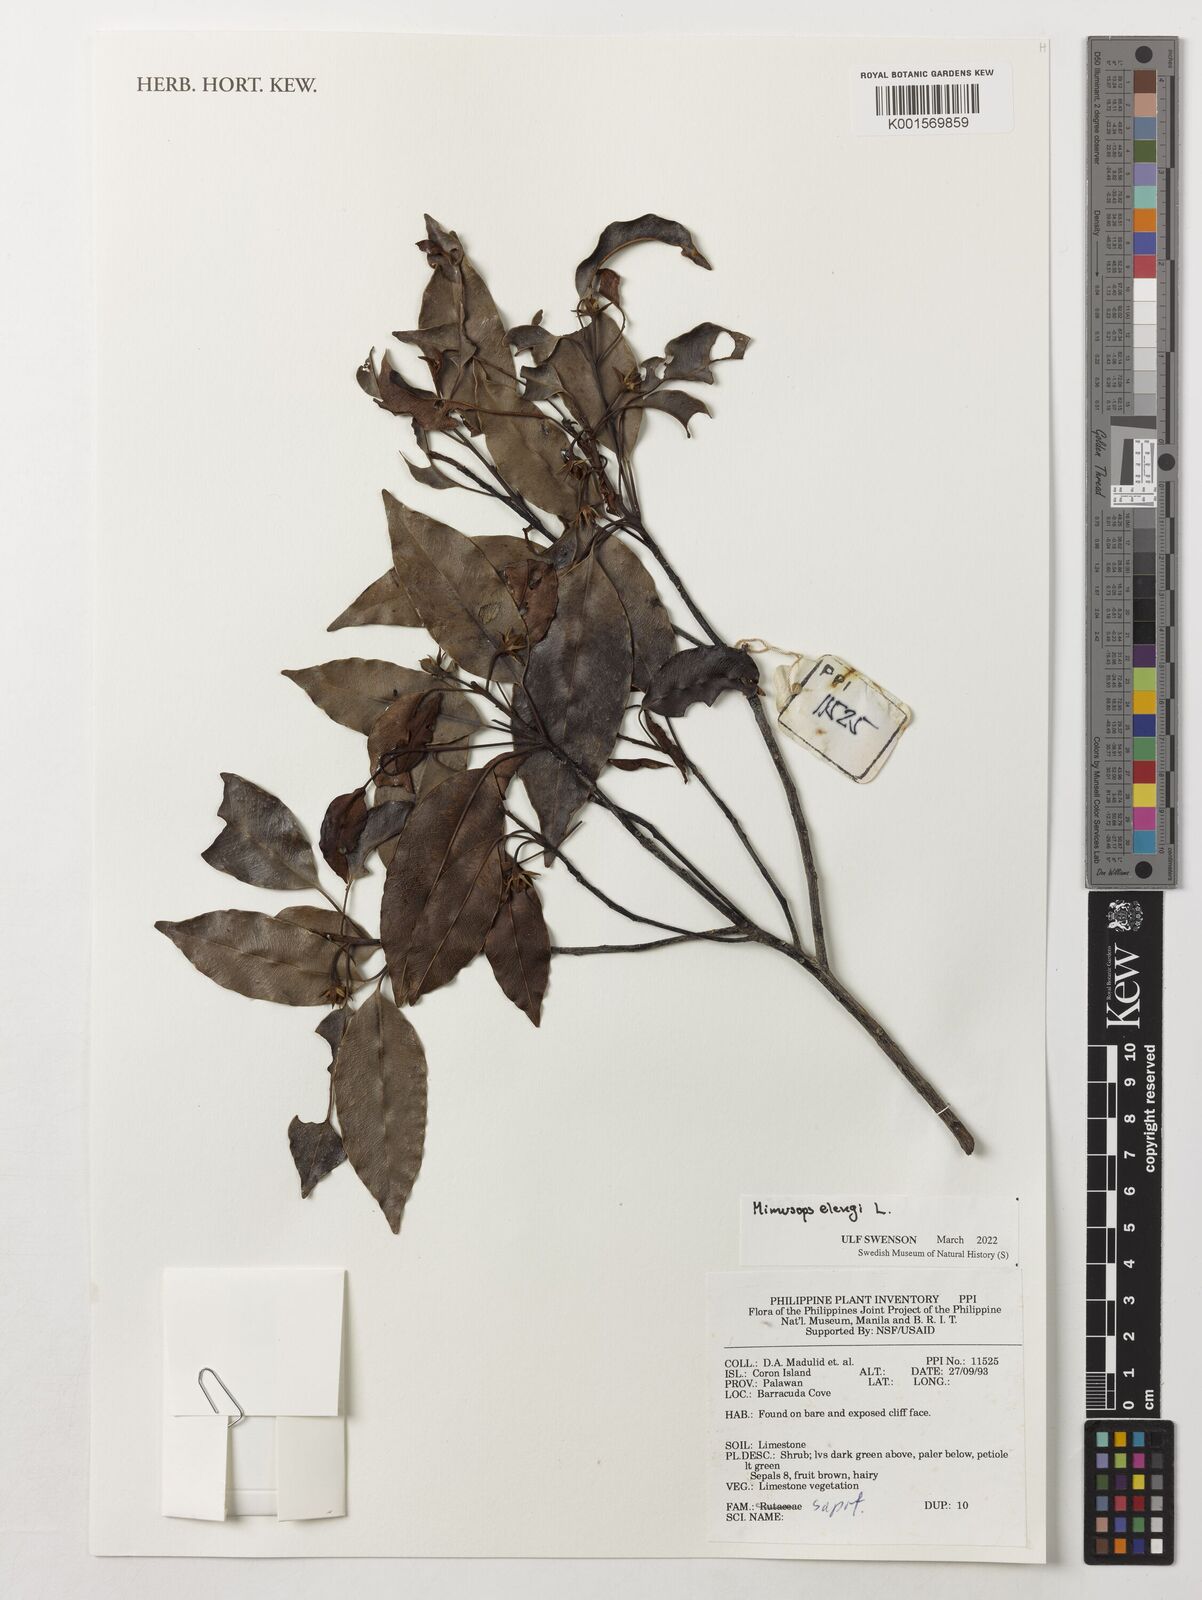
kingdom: Plantae
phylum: Tracheophyta
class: Magnoliopsida
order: Ericales
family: Sapotaceae
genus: Mimusops
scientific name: Mimusops elengi
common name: Spanish cherry
